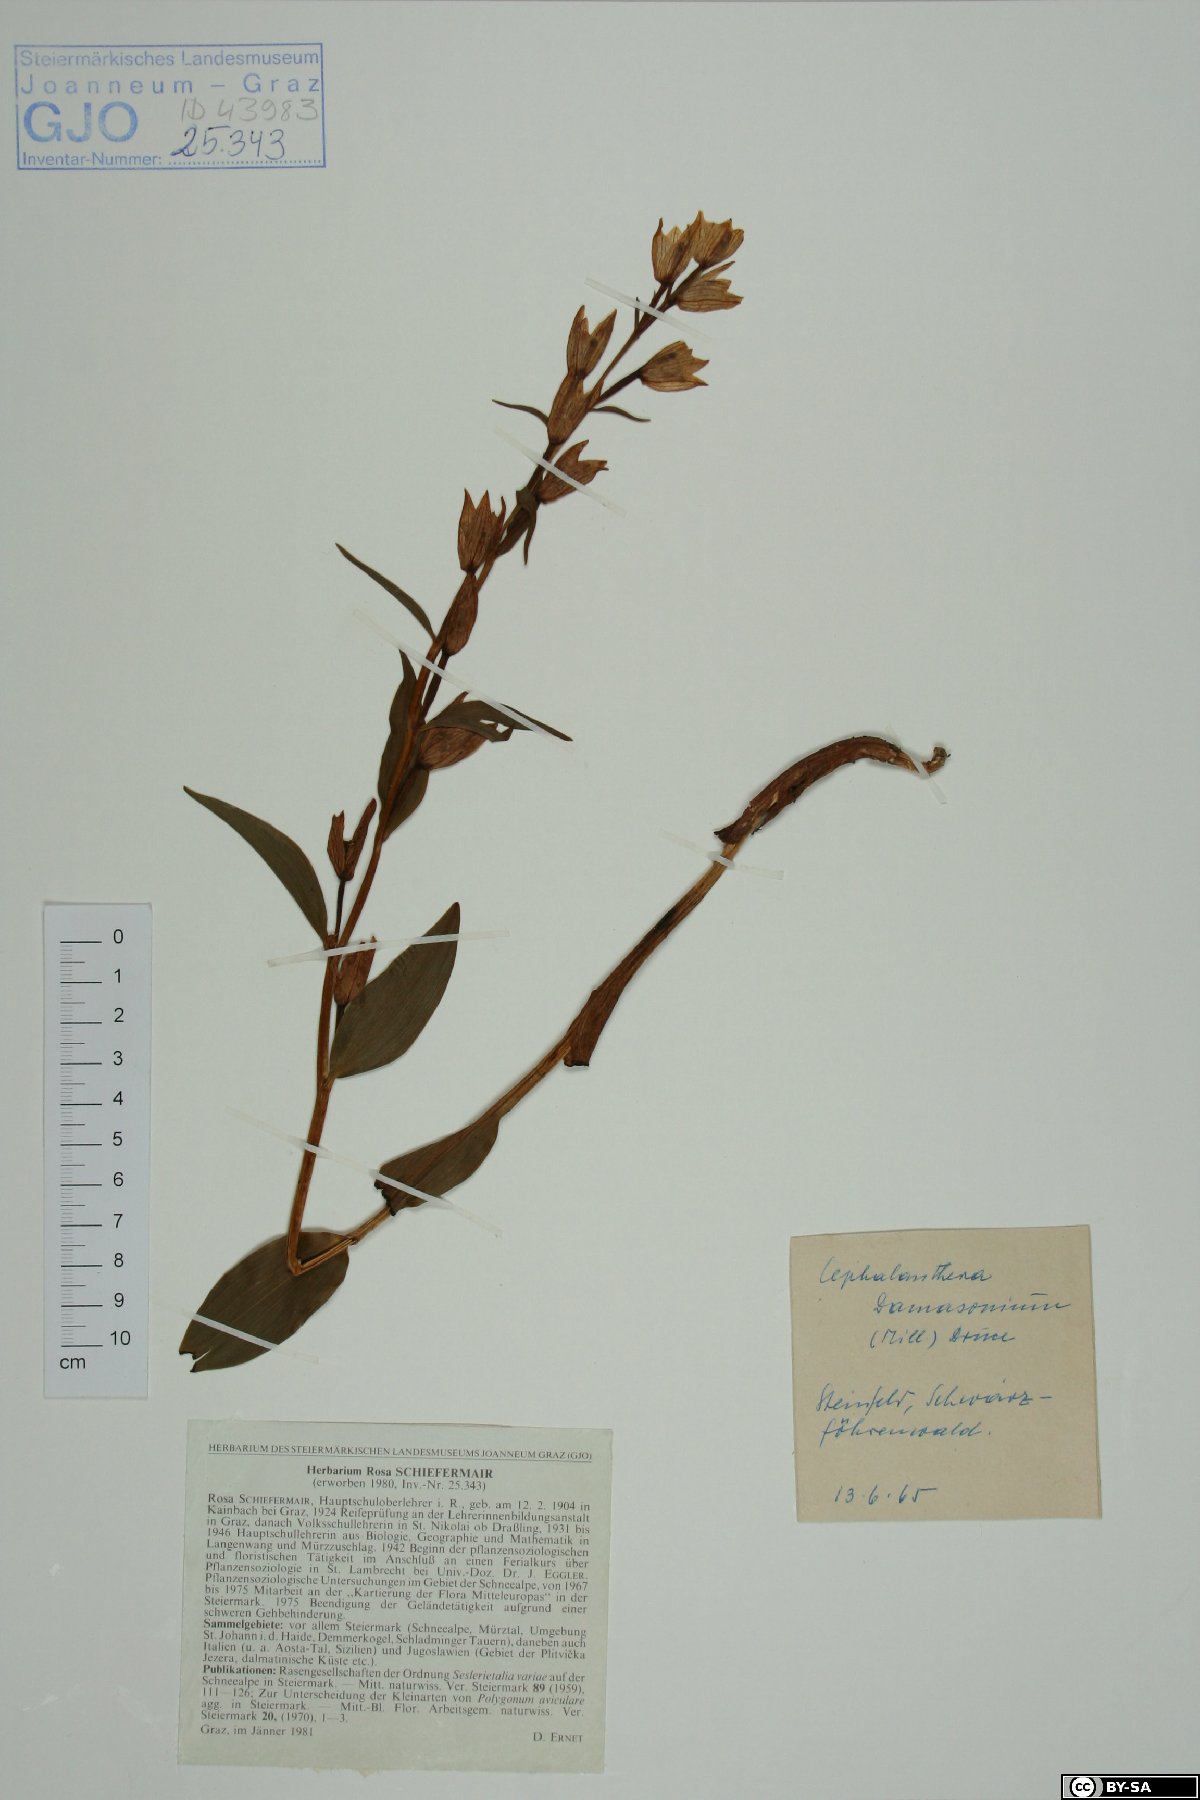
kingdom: Plantae
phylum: Tracheophyta
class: Liliopsida
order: Asparagales
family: Orchidaceae
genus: Cephalanthera
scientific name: Cephalanthera damasonium
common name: White helleborine
